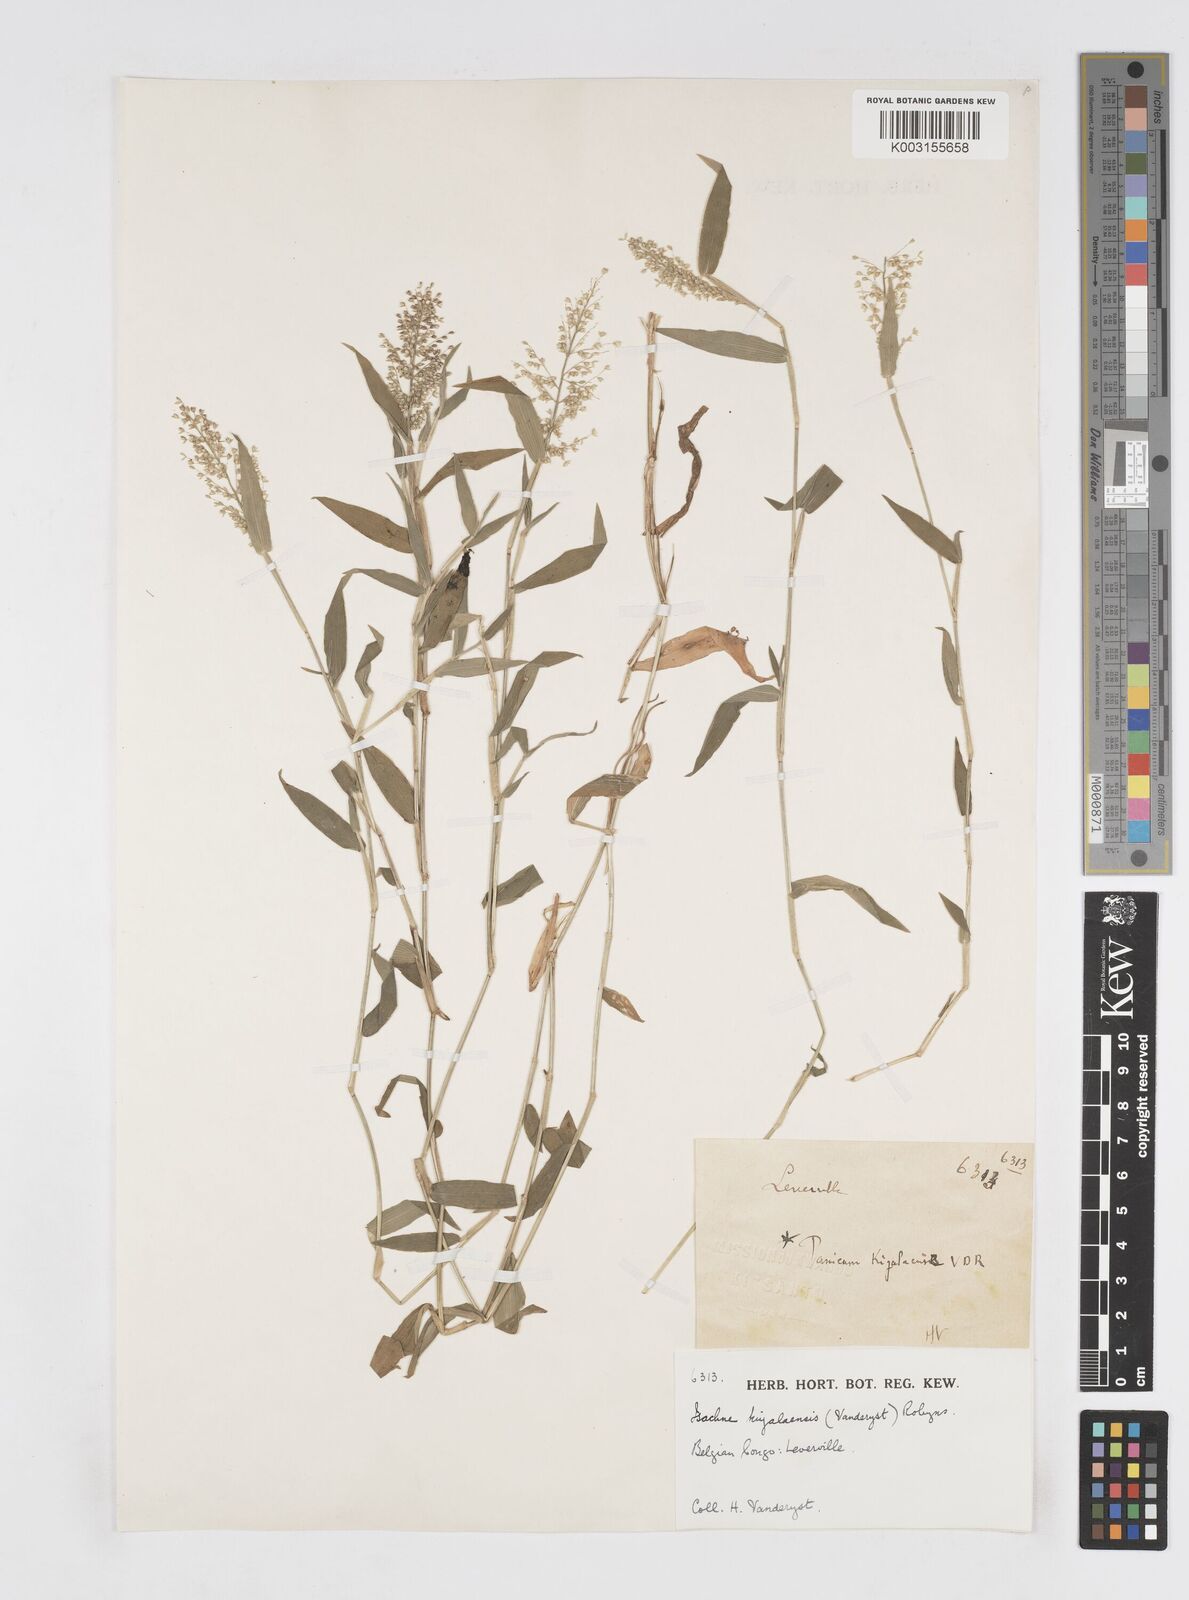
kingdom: Plantae
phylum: Tracheophyta
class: Liliopsida
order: Poales
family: Poaceae
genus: Isachne
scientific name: Isachne kiyalaensis
